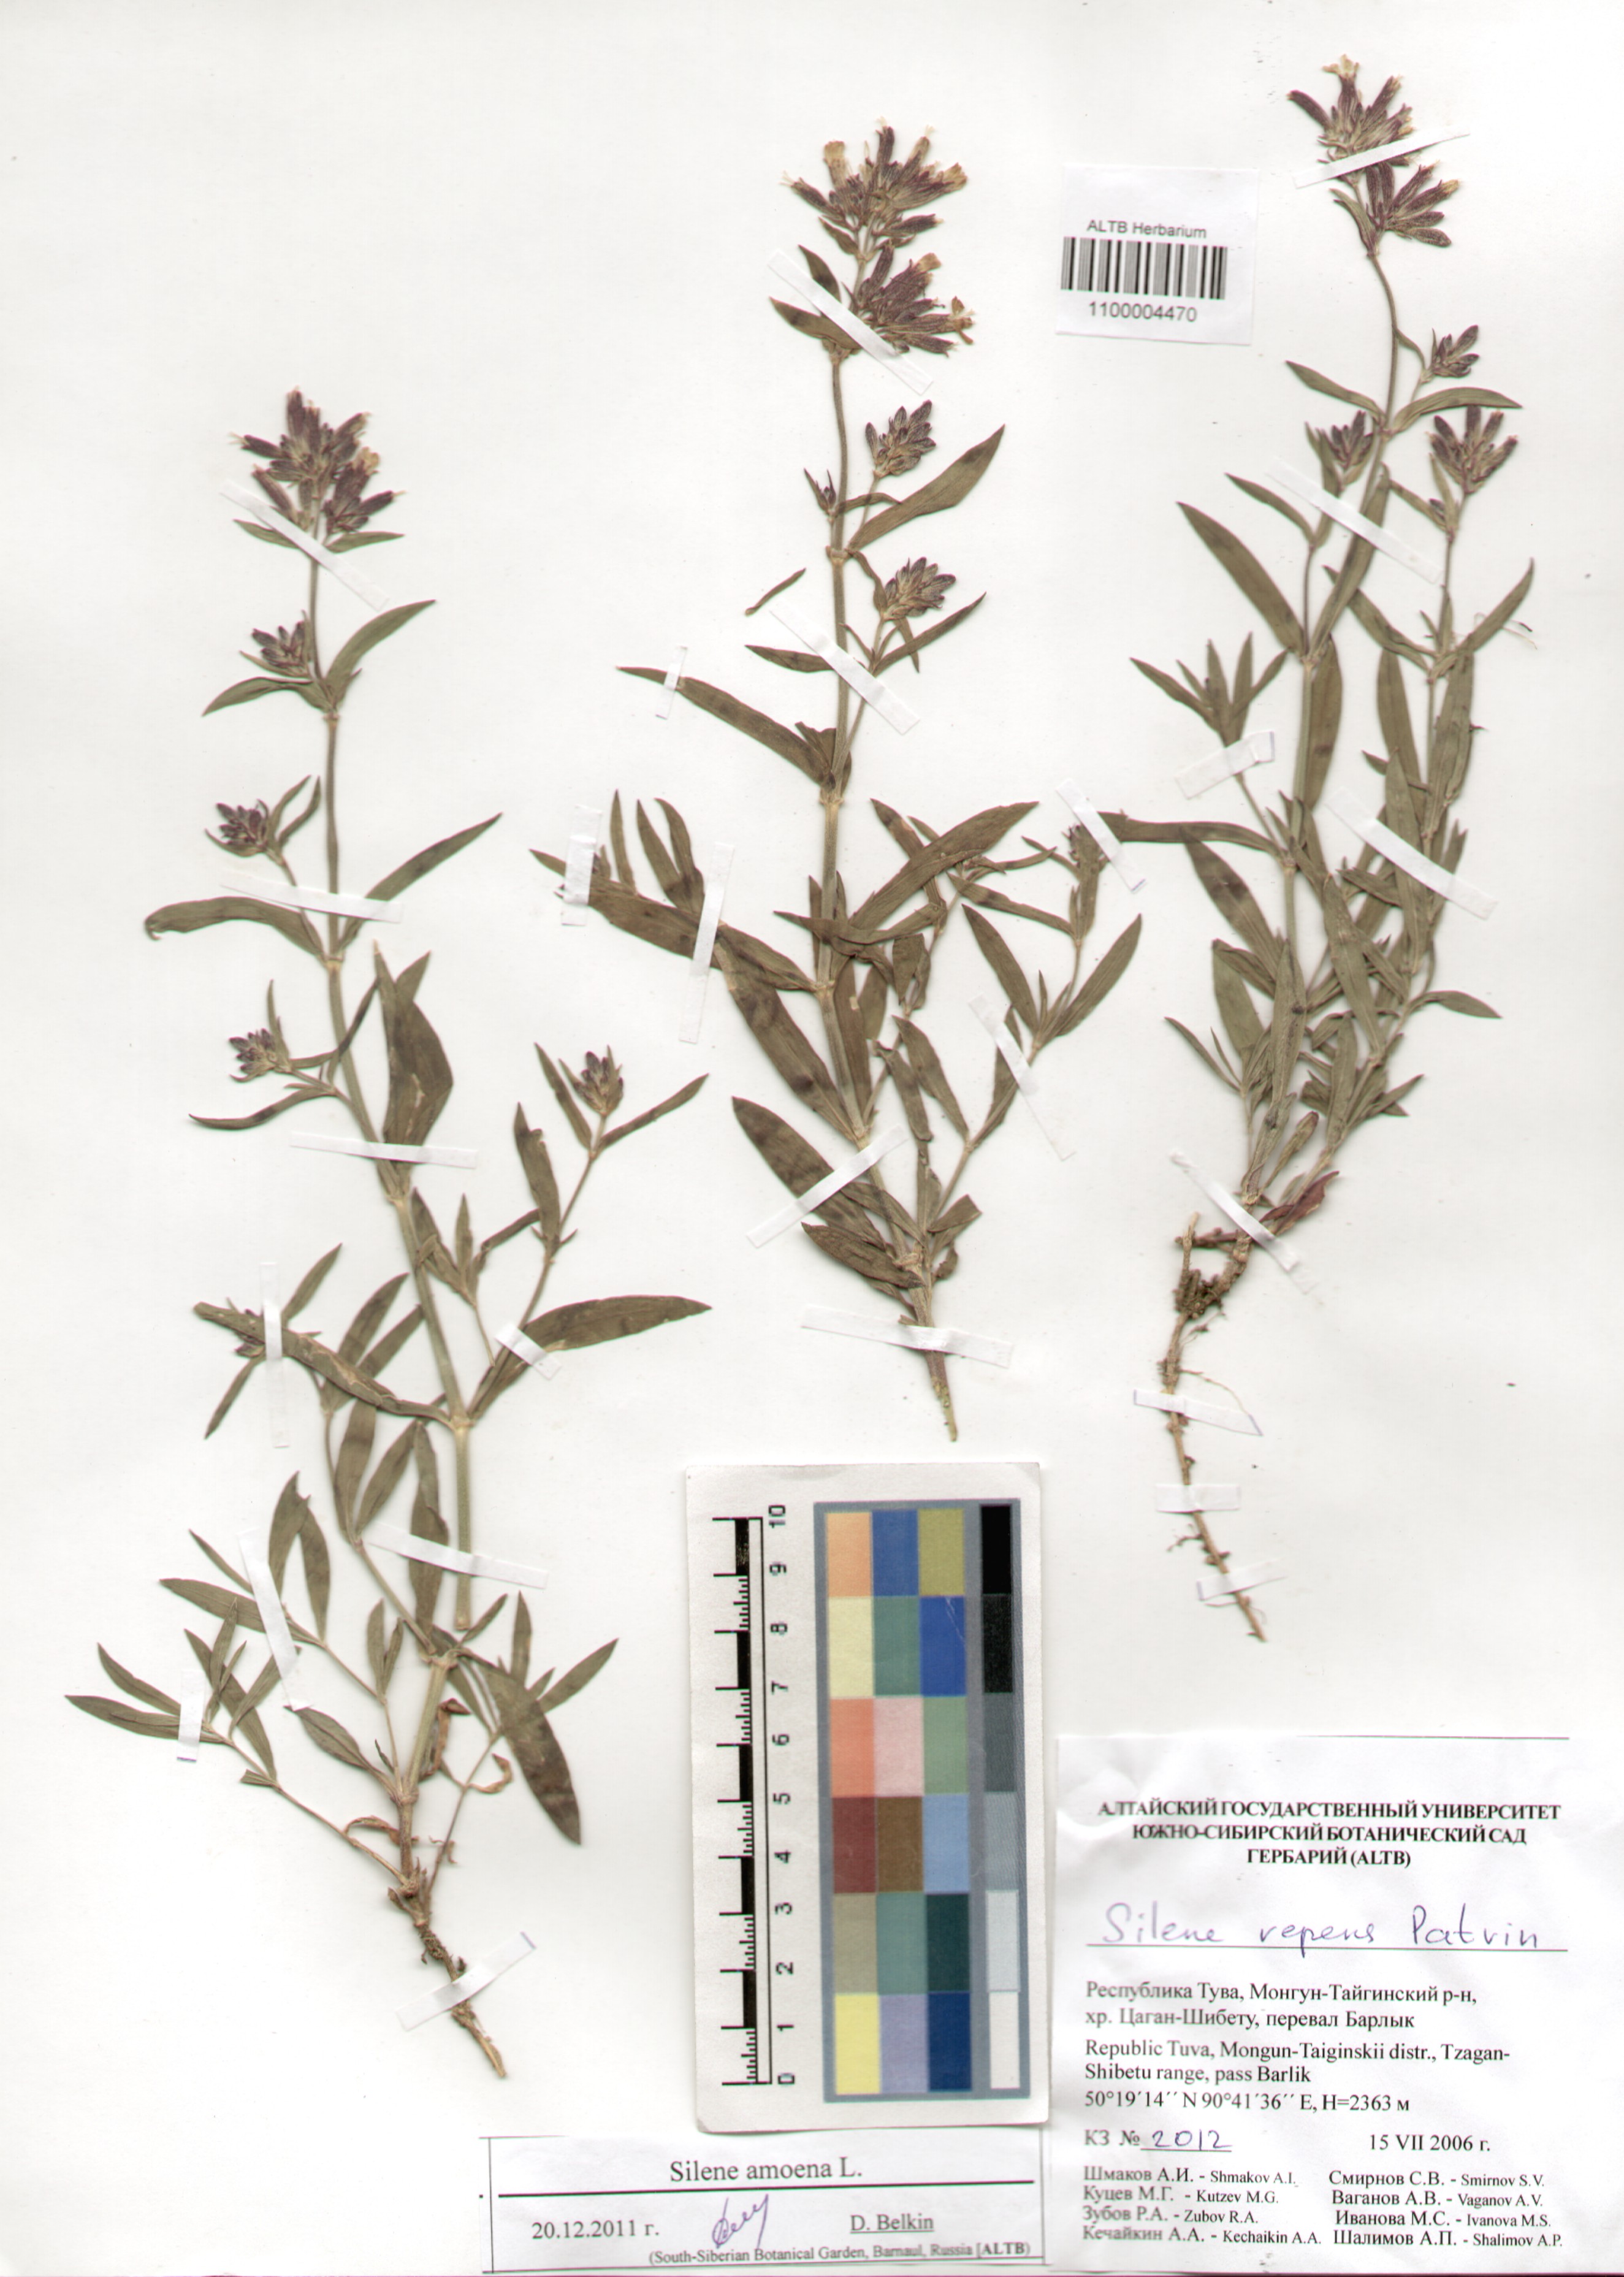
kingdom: Plantae
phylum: Tracheophyta
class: Magnoliopsida
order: Caryophyllales
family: Caryophyllaceae
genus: Silene
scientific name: Silene amoena
